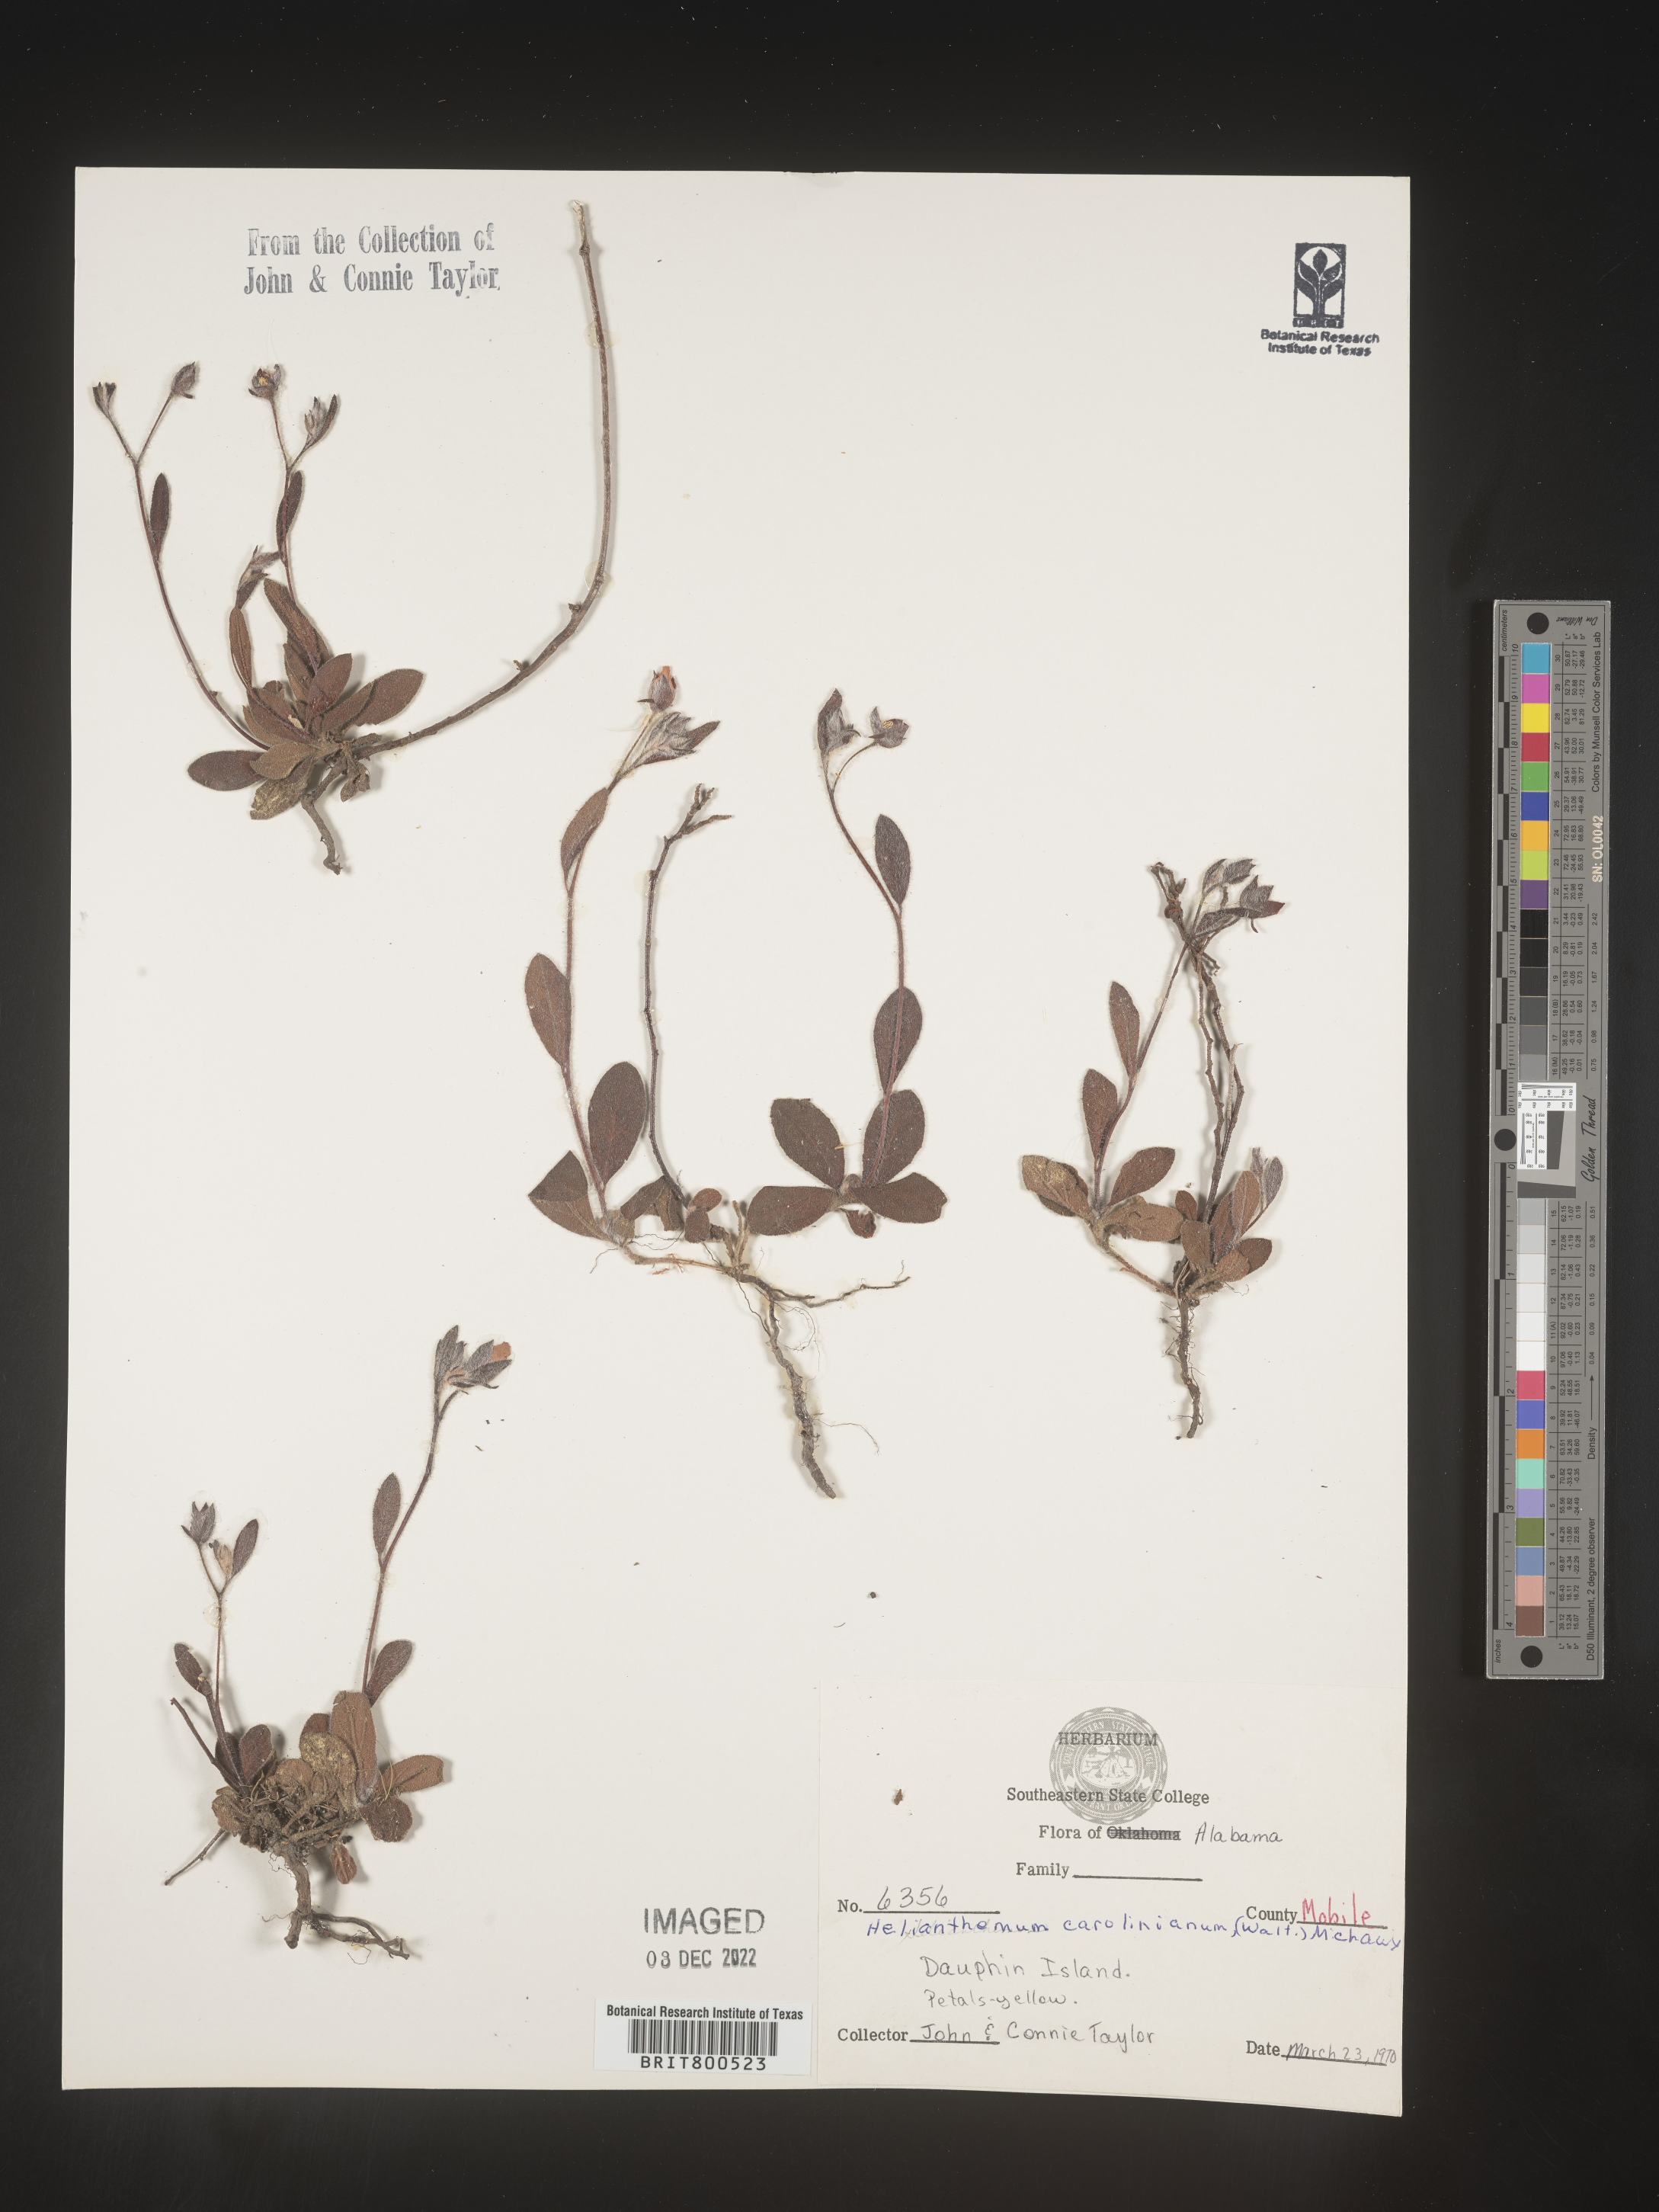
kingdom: Plantae
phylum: Tracheophyta
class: Magnoliopsida
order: Malvales
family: Cistaceae
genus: Crocanthemum
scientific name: Crocanthemum carolinianum
